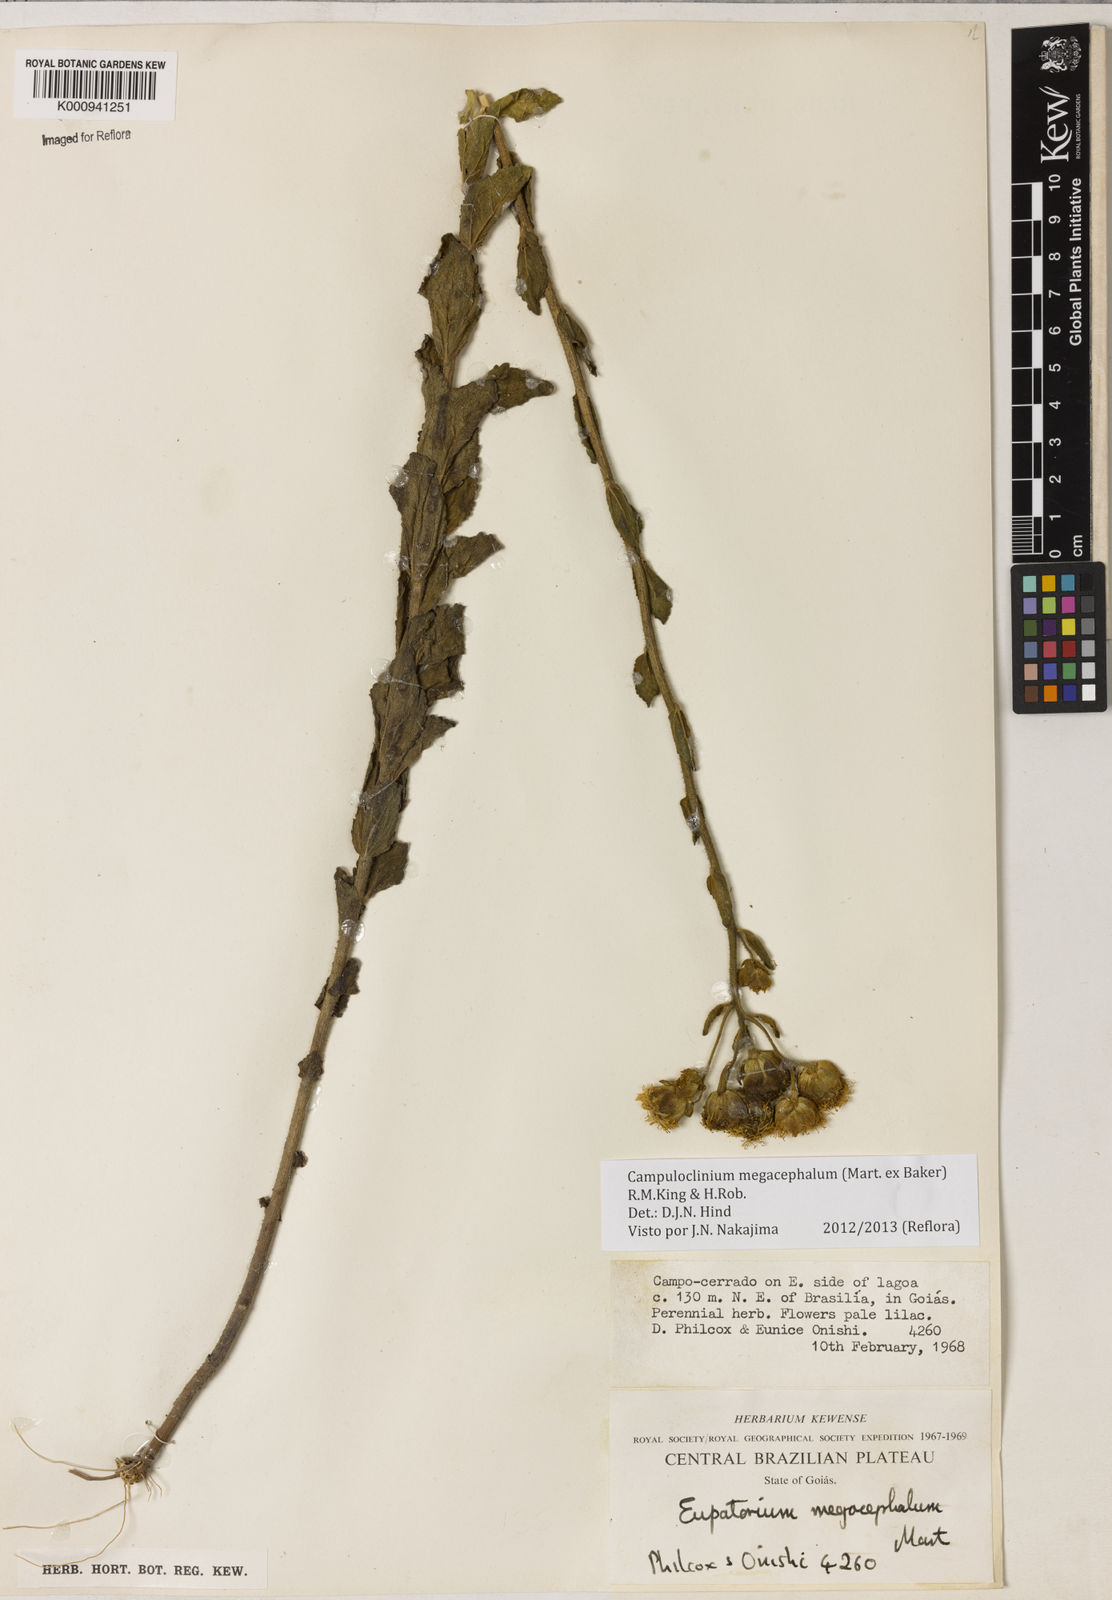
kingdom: Plantae
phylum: Tracheophyta
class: Magnoliopsida
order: Asterales
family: Asteraceae
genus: Campuloclinium
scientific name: Campuloclinium megacephalum
